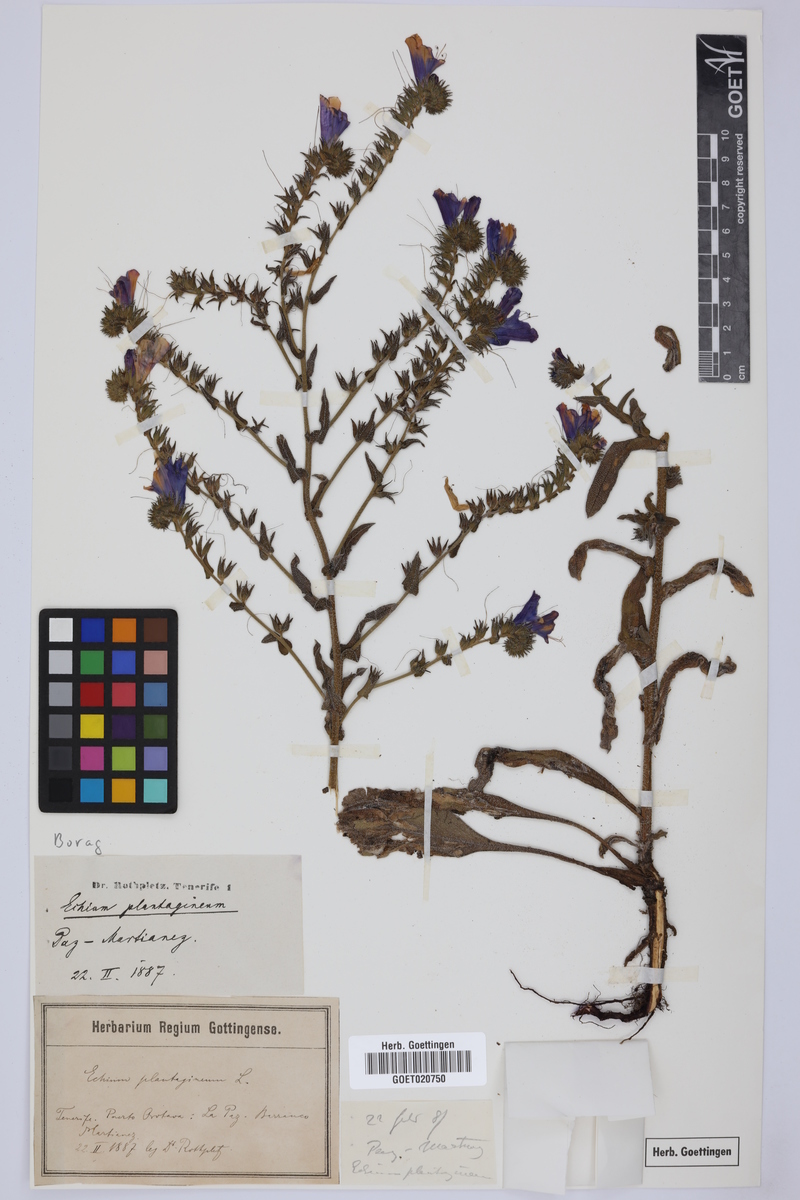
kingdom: Plantae
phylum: Tracheophyta
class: Magnoliopsida
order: Boraginales
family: Boraginaceae
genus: Echium
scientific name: Echium plantagineum
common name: Purple viper's-bugloss
